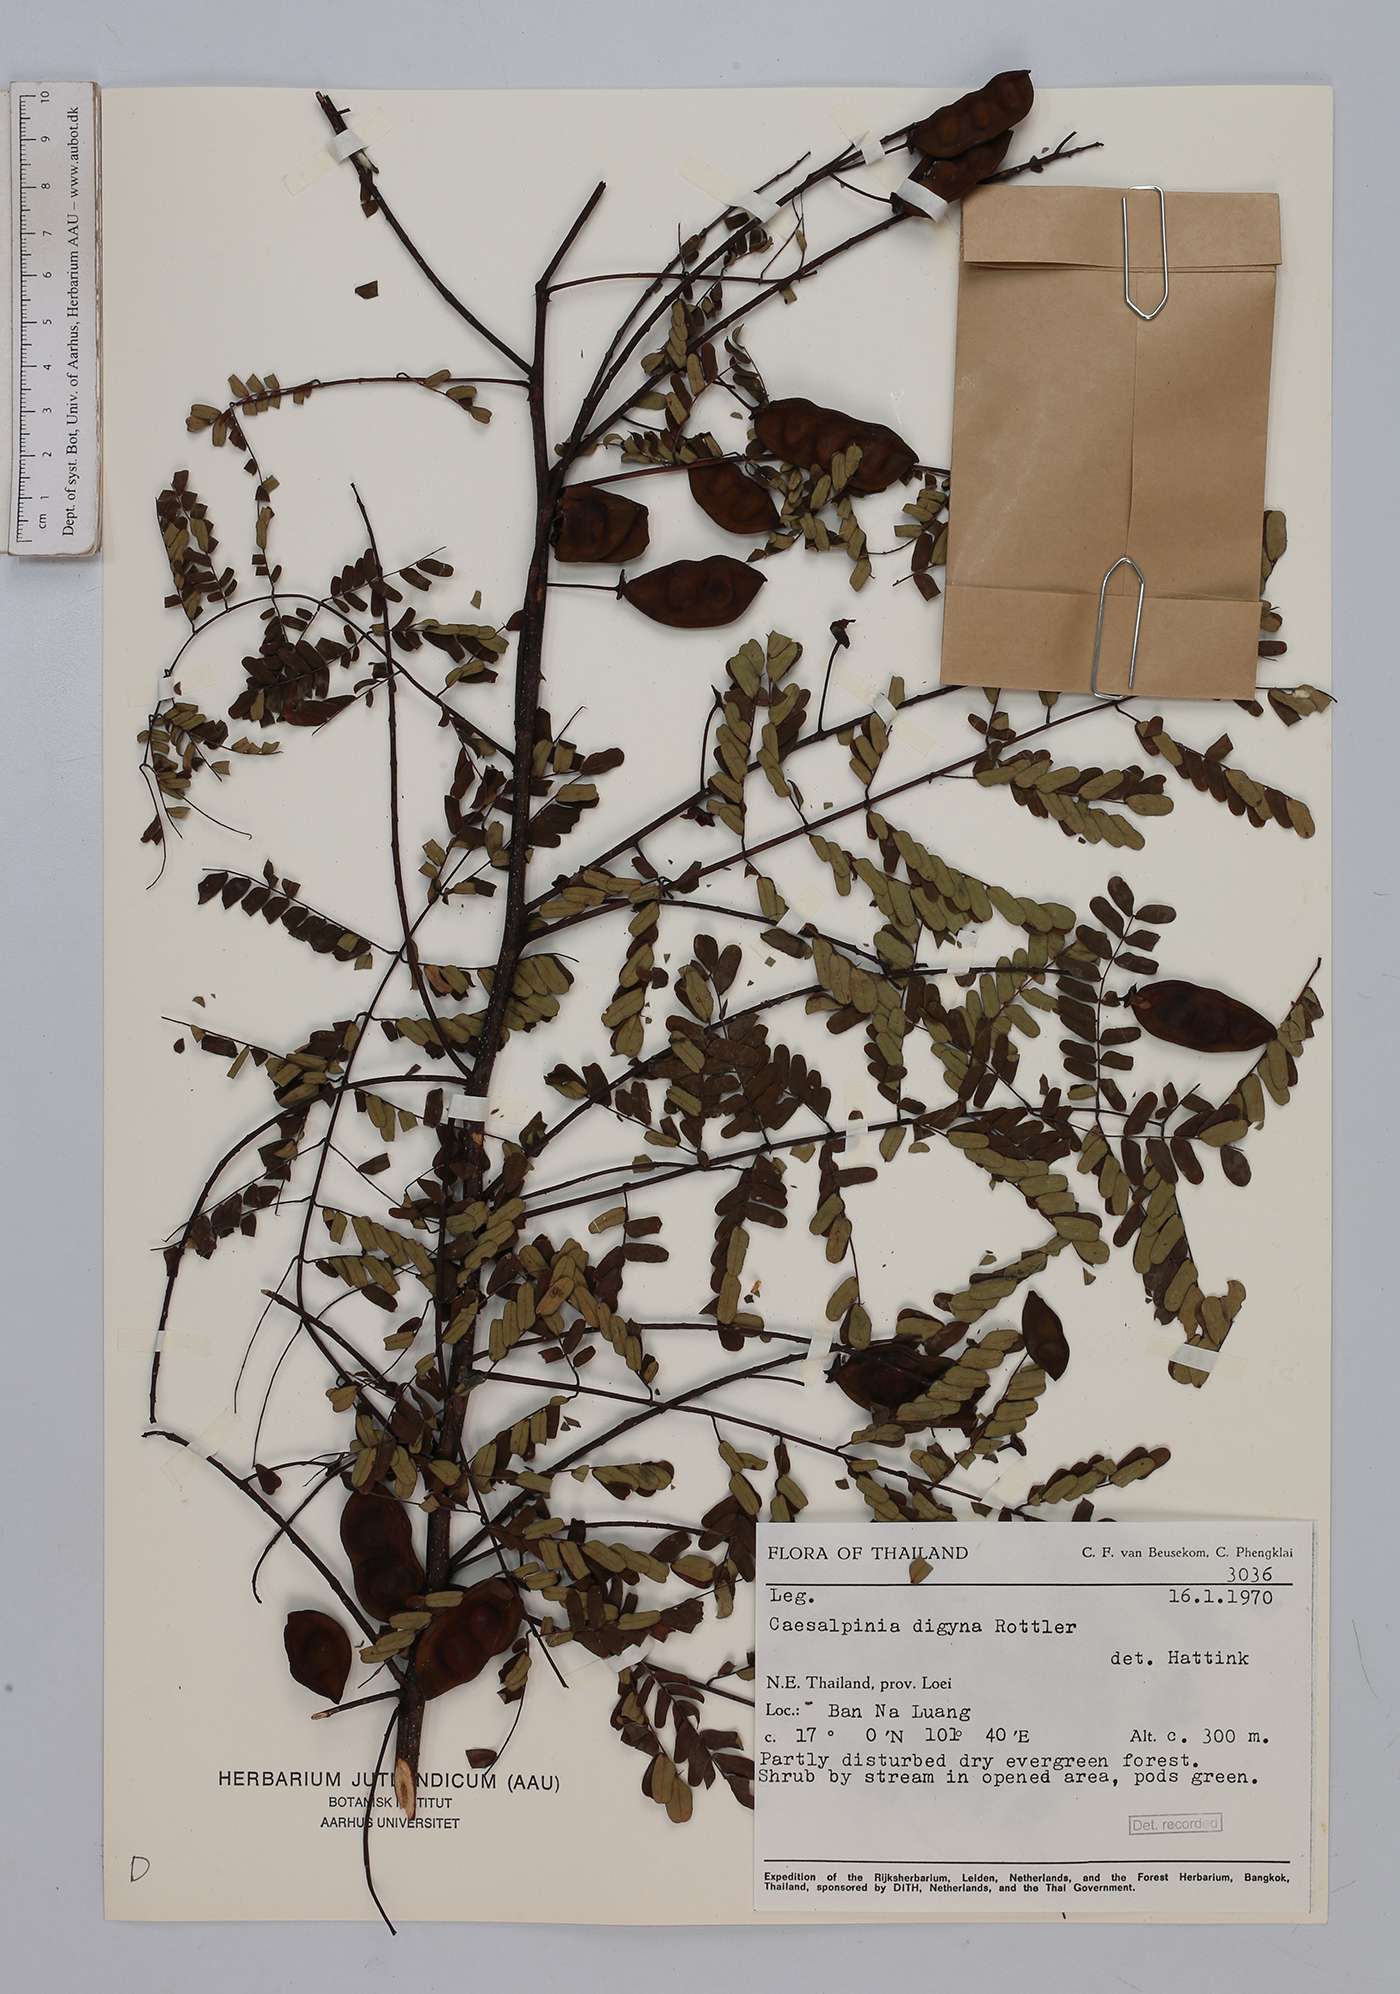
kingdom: Plantae
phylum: Tracheophyta
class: Magnoliopsida
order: Fabales
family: Fabaceae
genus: Moullava
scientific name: Moullava digyna
